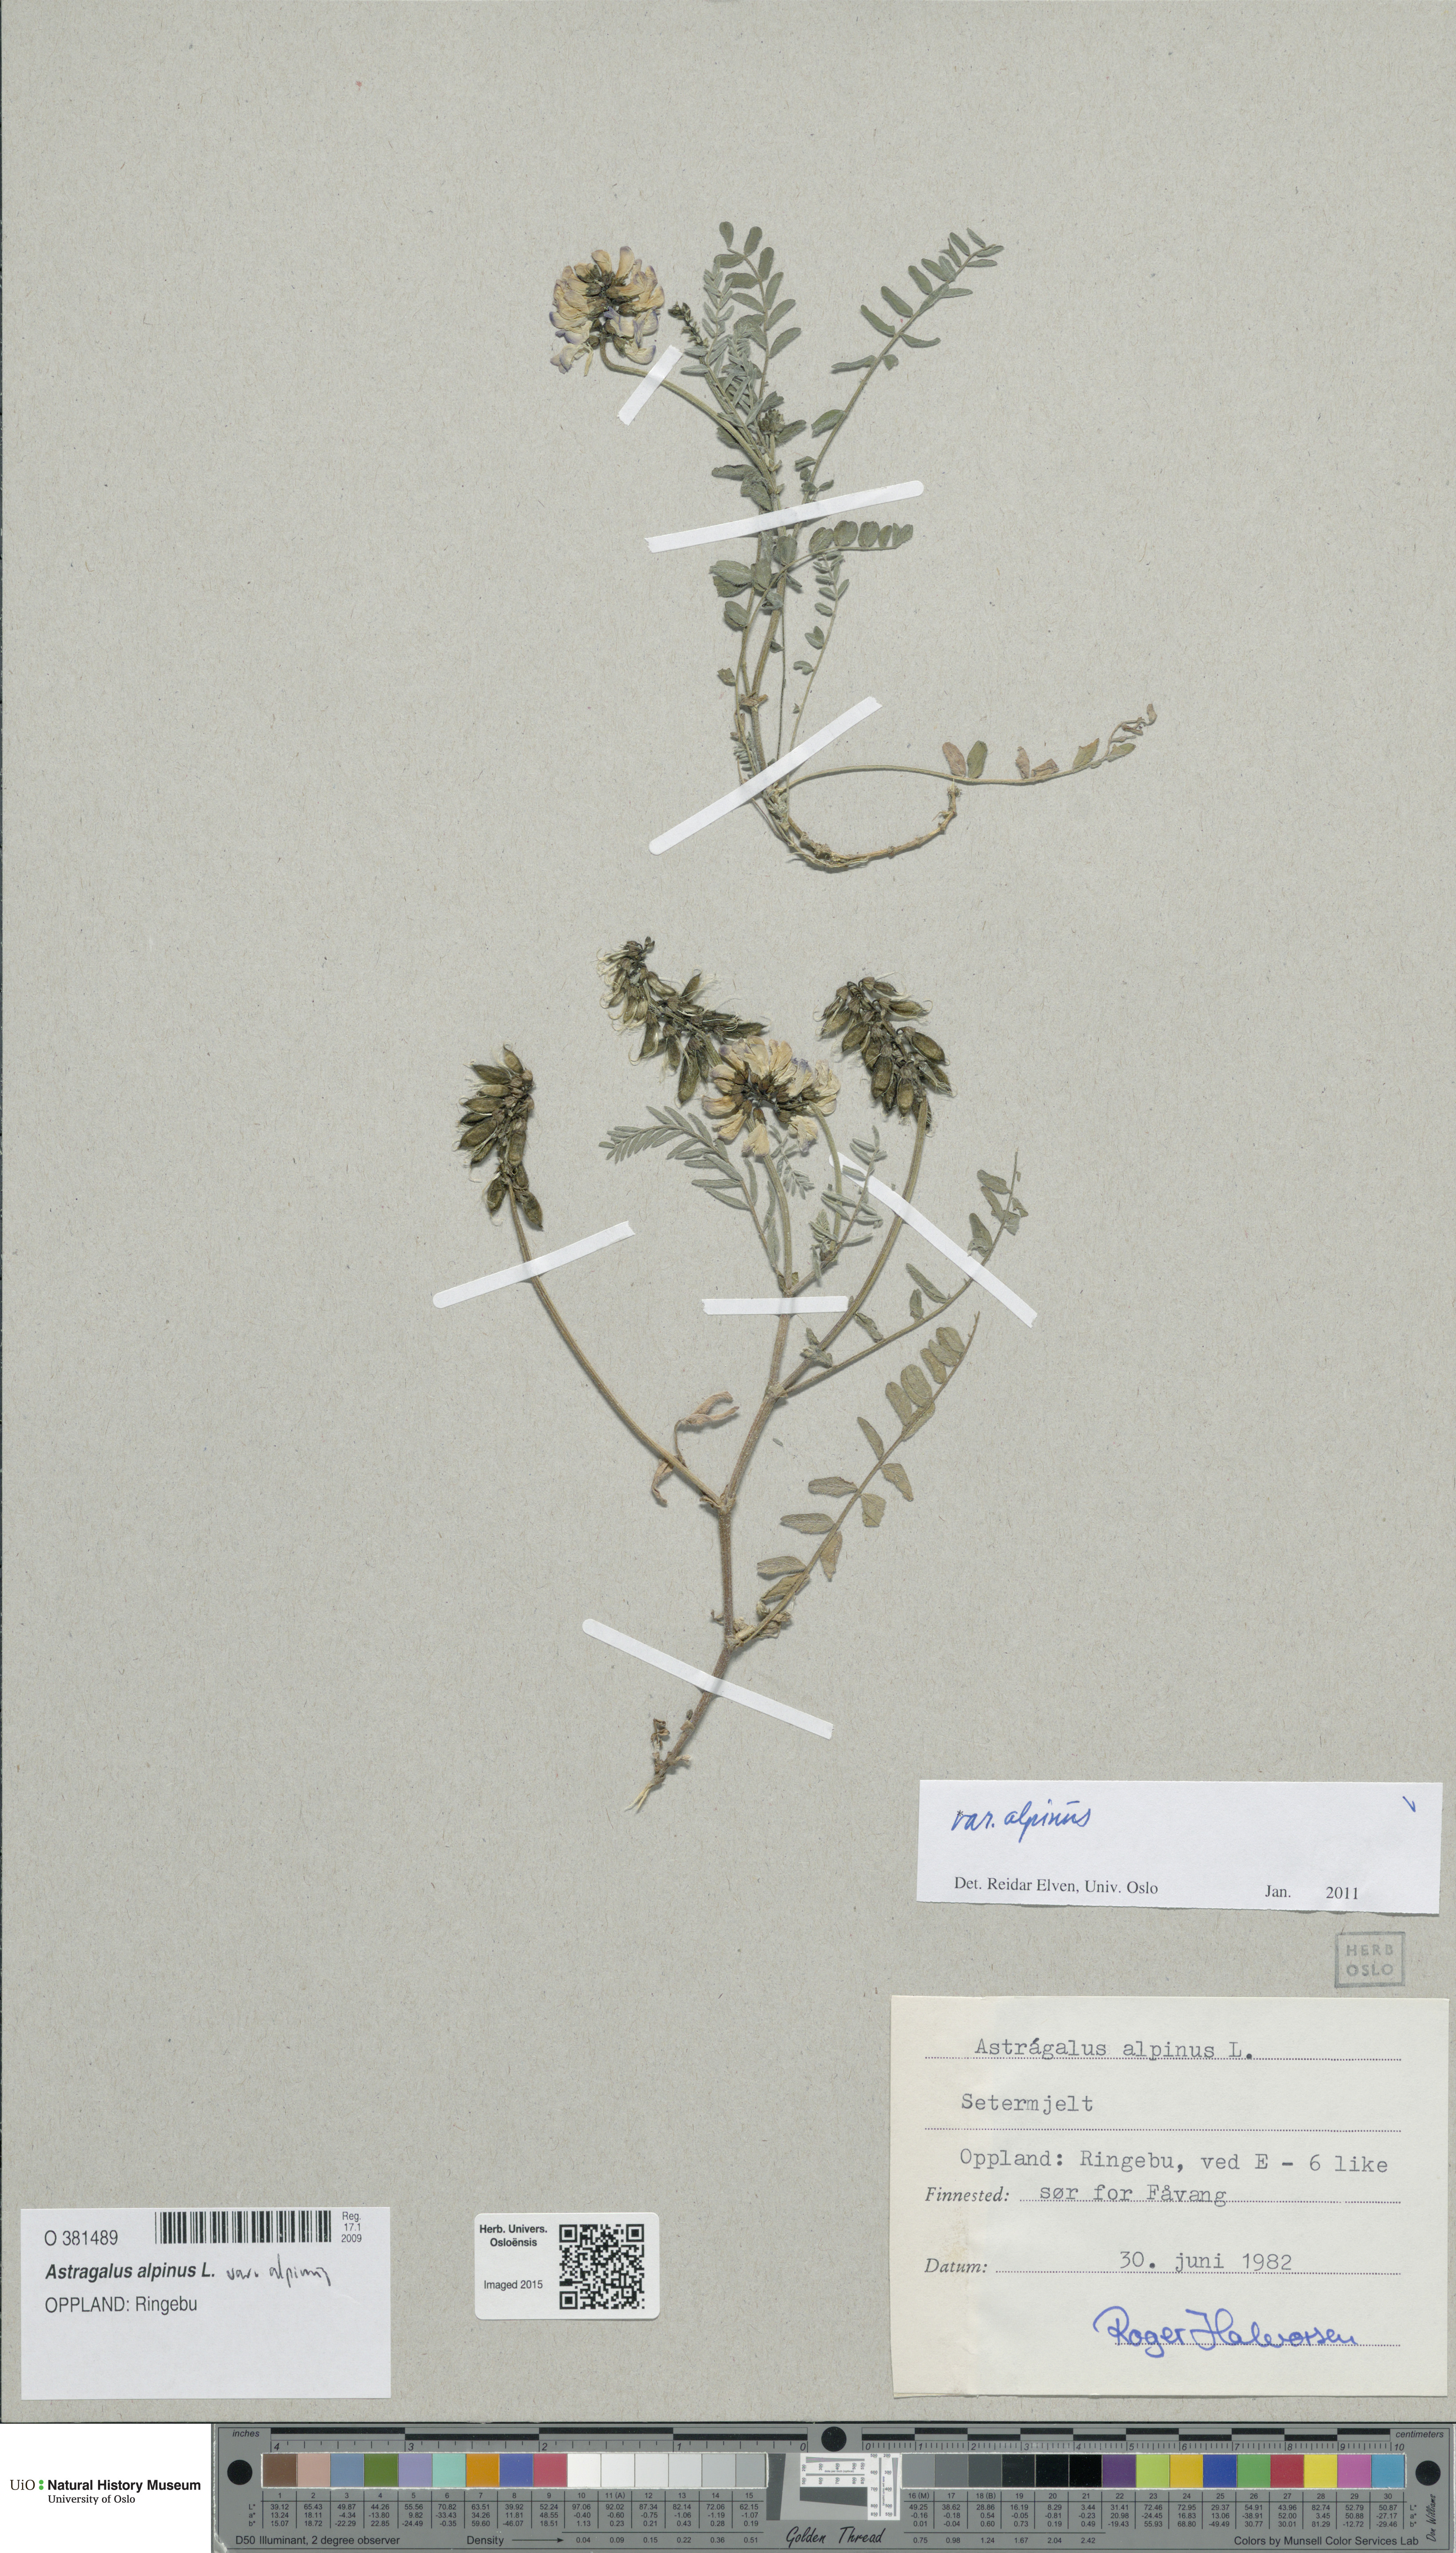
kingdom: Plantae
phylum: Tracheophyta
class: Magnoliopsida
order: Fabales
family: Fabaceae
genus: Astragalus
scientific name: Astragalus alpinus
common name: Alpine milk-vetch
